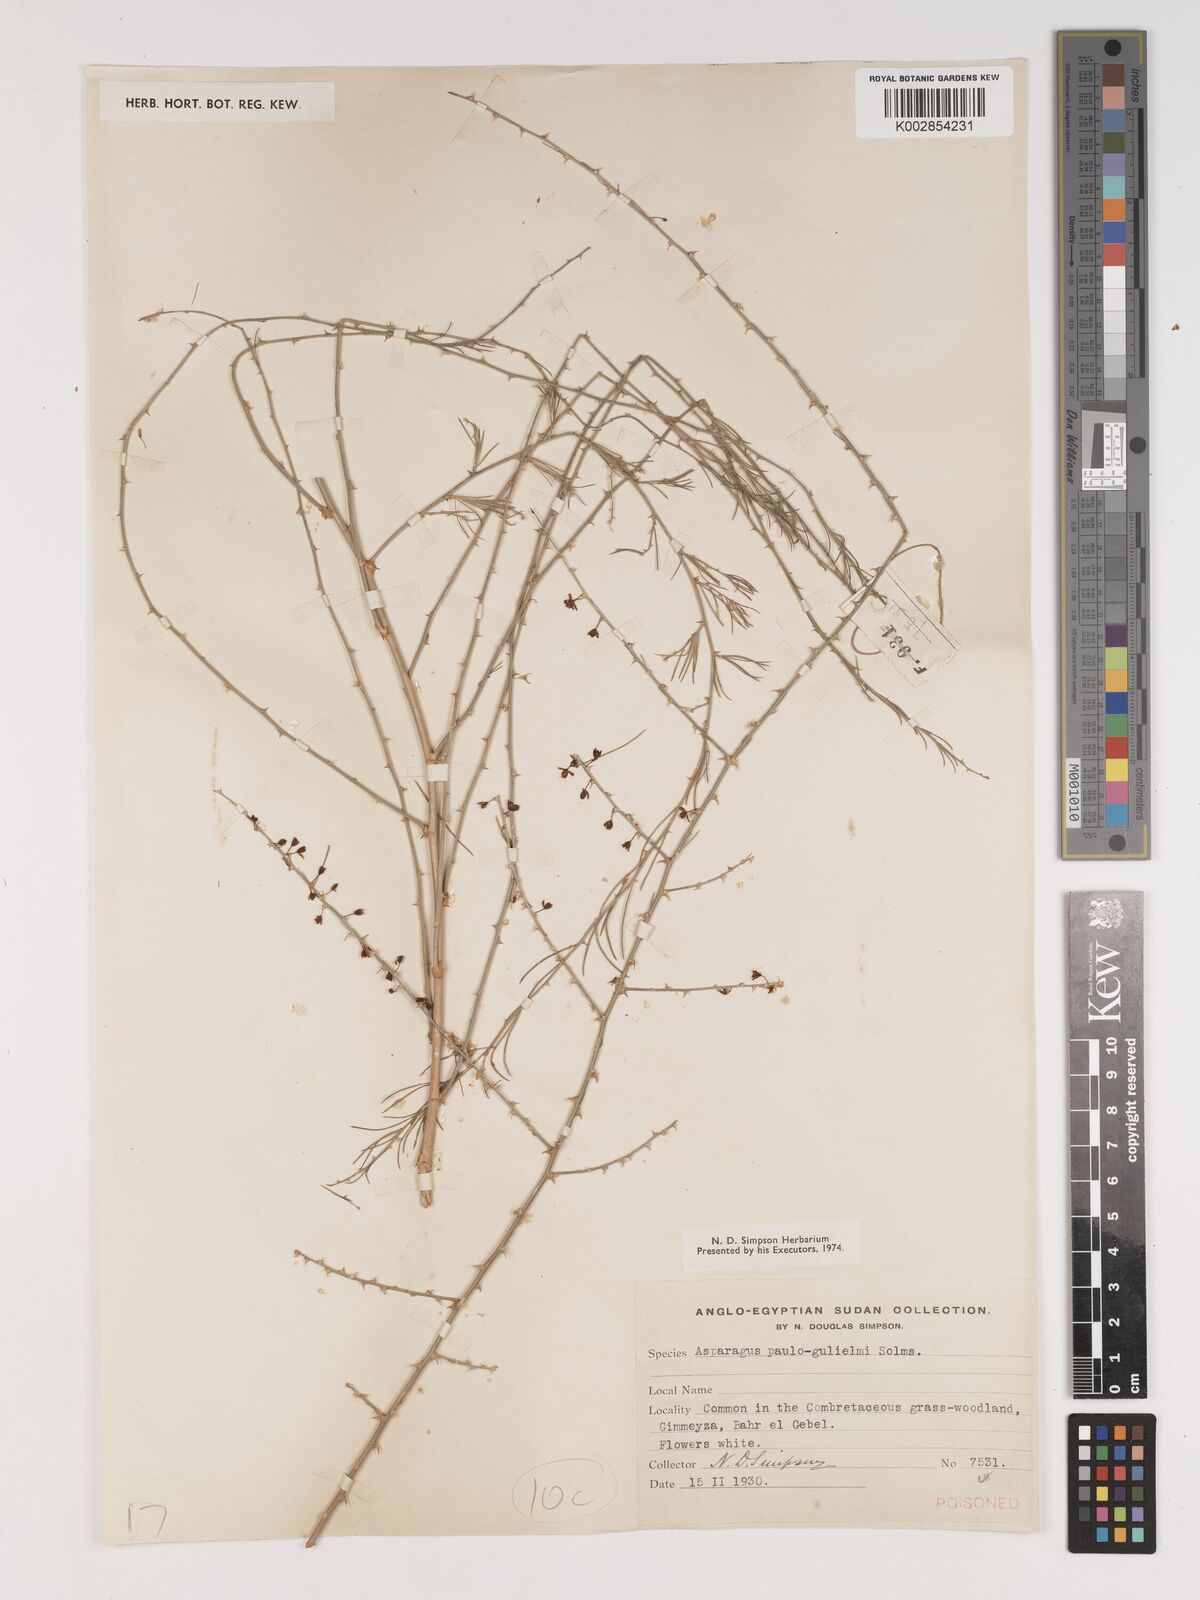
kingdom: Plantae
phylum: Tracheophyta
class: Liliopsida
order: Asparagales
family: Asparagaceae
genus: Asparagus
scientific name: Asparagus flagellaris
